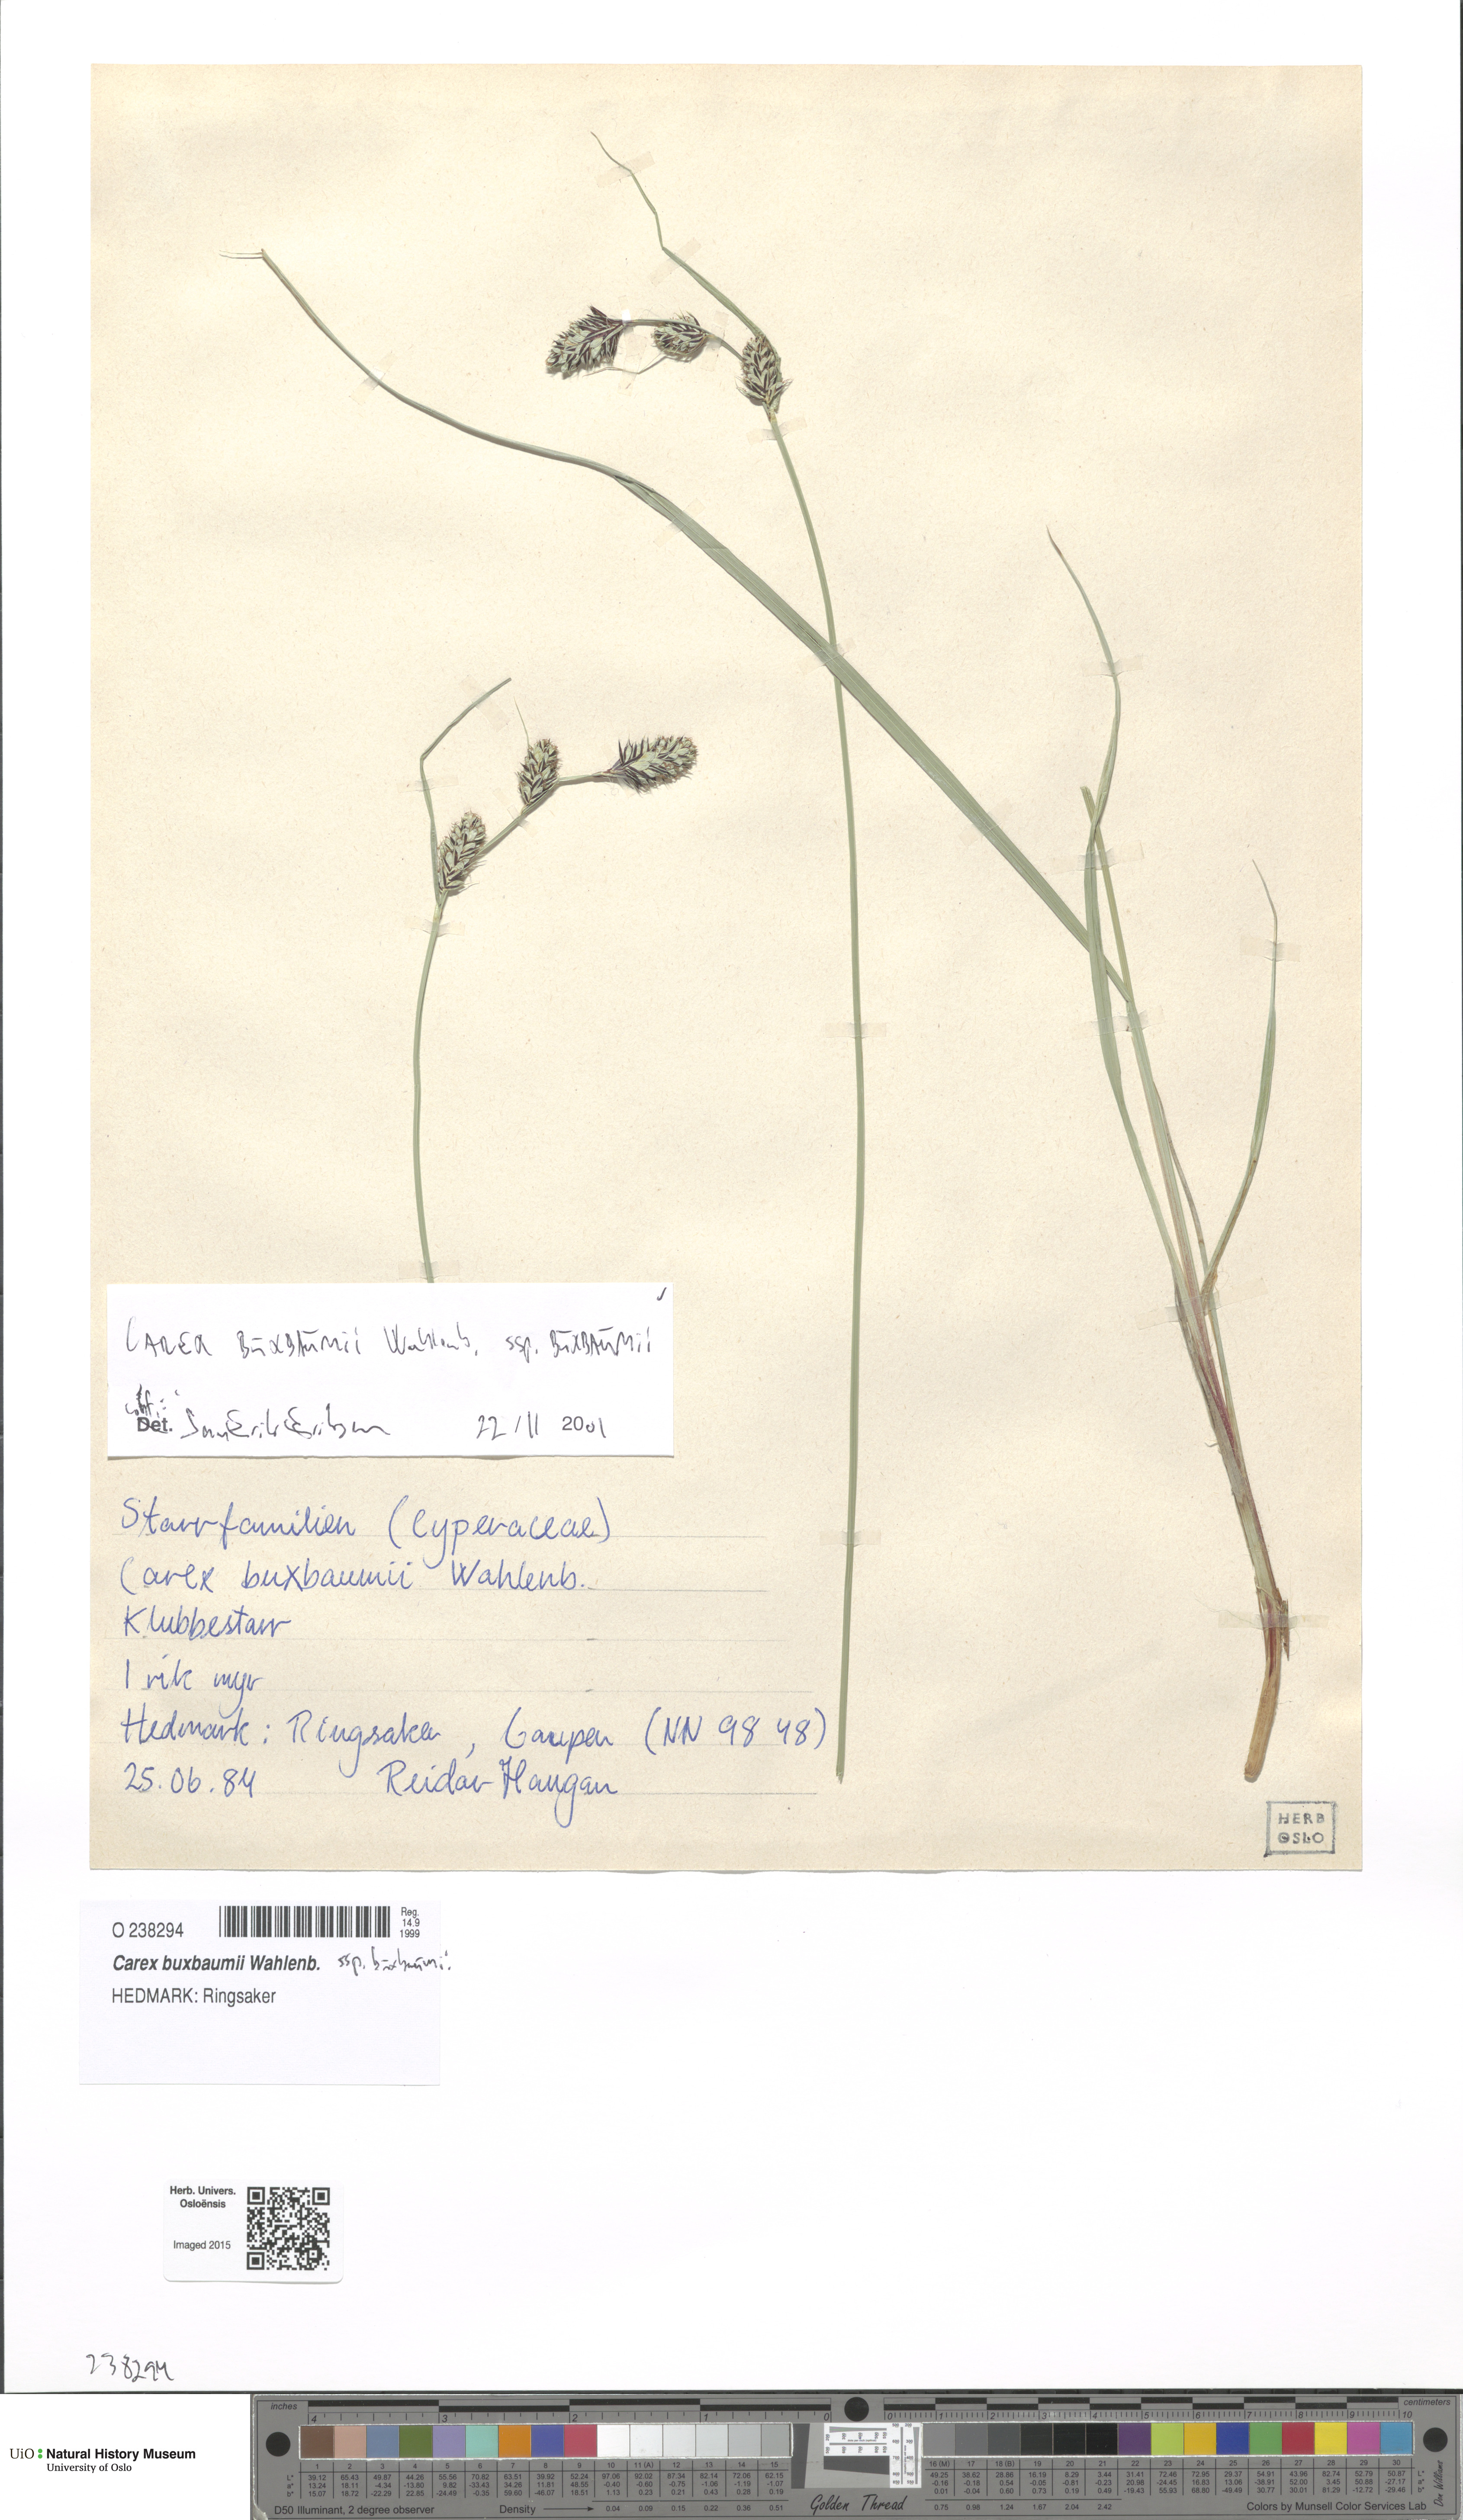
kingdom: Plantae
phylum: Tracheophyta
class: Liliopsida
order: Poales
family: Cyperaceae
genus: Carex
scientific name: Carex buxbaumii
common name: Club sedge
